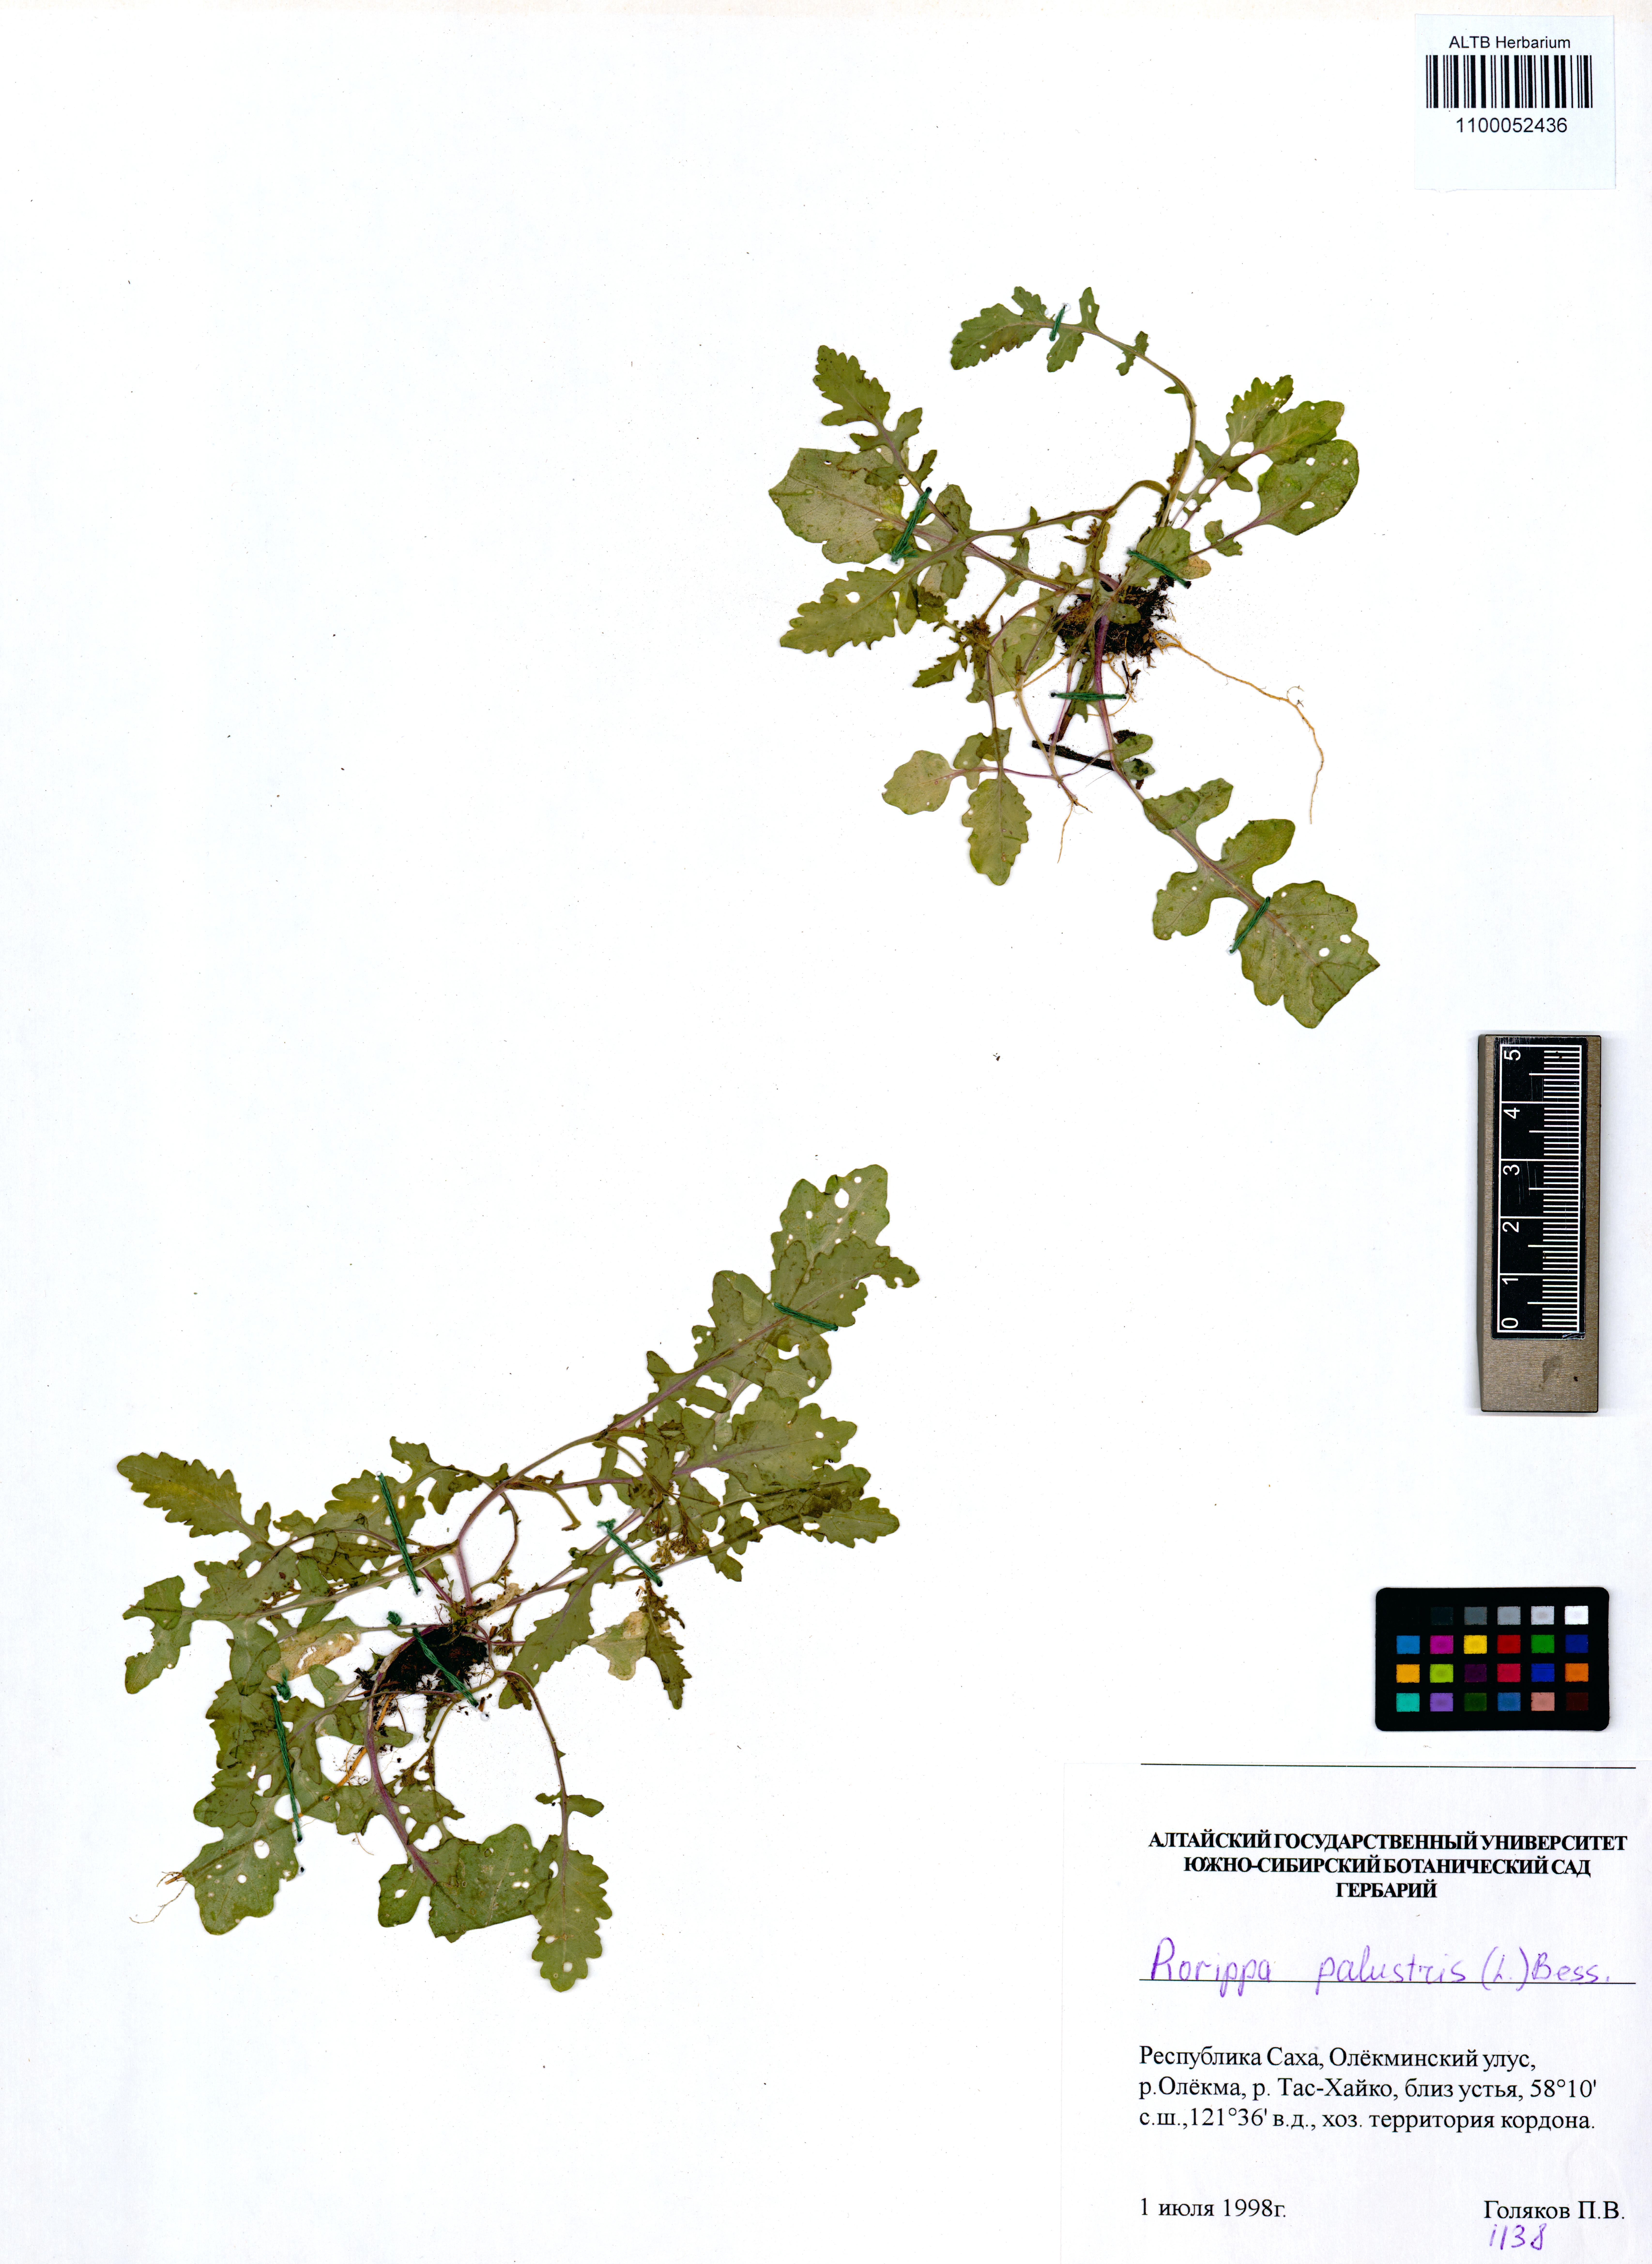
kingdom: Plantae
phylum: Tracheophyta
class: Magnoliopsida
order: Brassicales
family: Brassicaceae
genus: Rorippa
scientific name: Rorippa palustris
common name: Marsh yellow-cress
